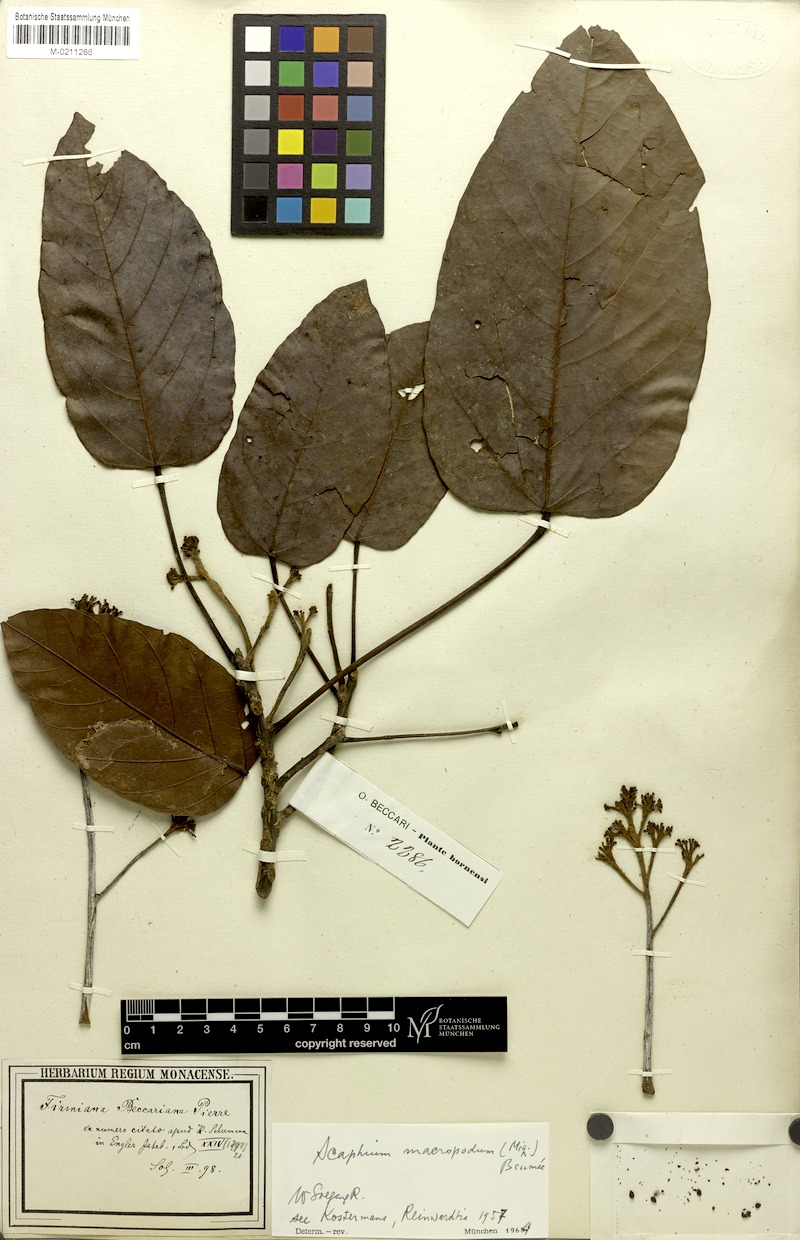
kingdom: Plantae
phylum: Tracheophyta
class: Magnoliopsida
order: Malvales
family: Malvaceae
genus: Scaphium
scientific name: Scaphium affine
